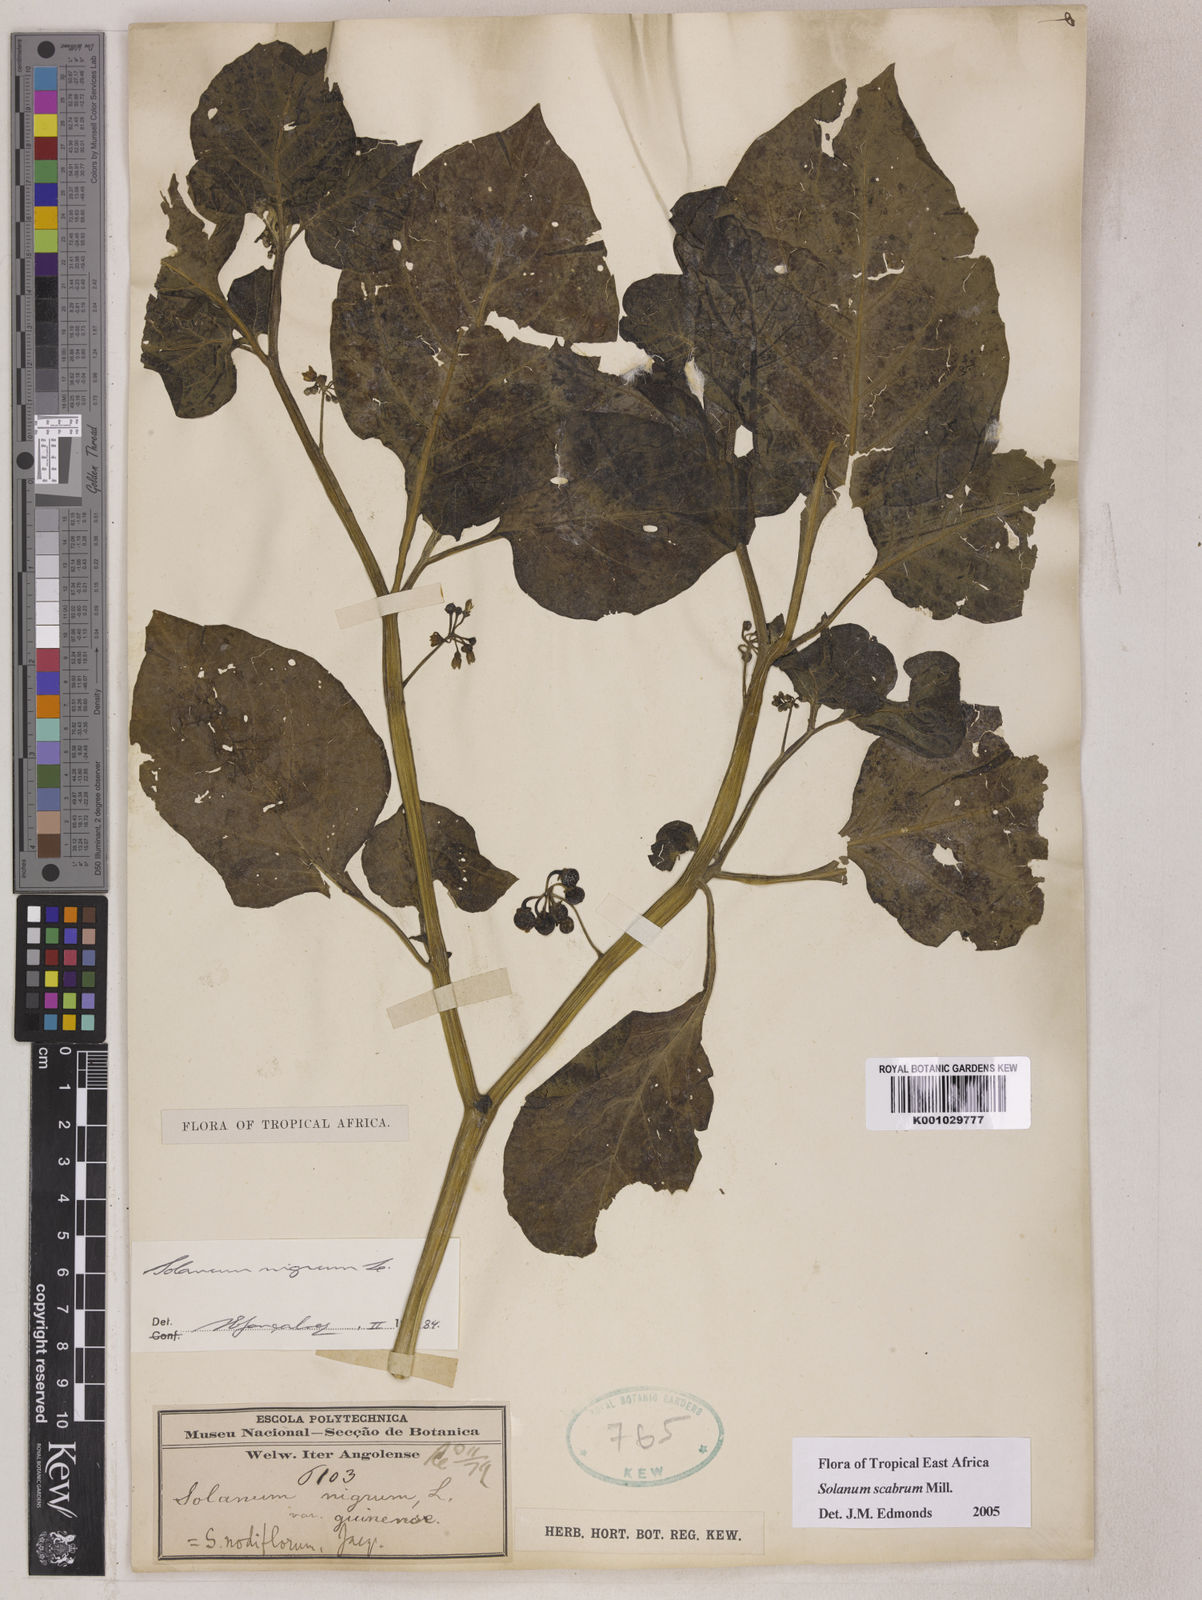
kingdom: Plantae
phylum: Tracheophyta
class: Magnoliopsida
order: Solanales
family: Solanaceae
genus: Solanum
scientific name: Solanum scabrum
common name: Garden-huckleberry
